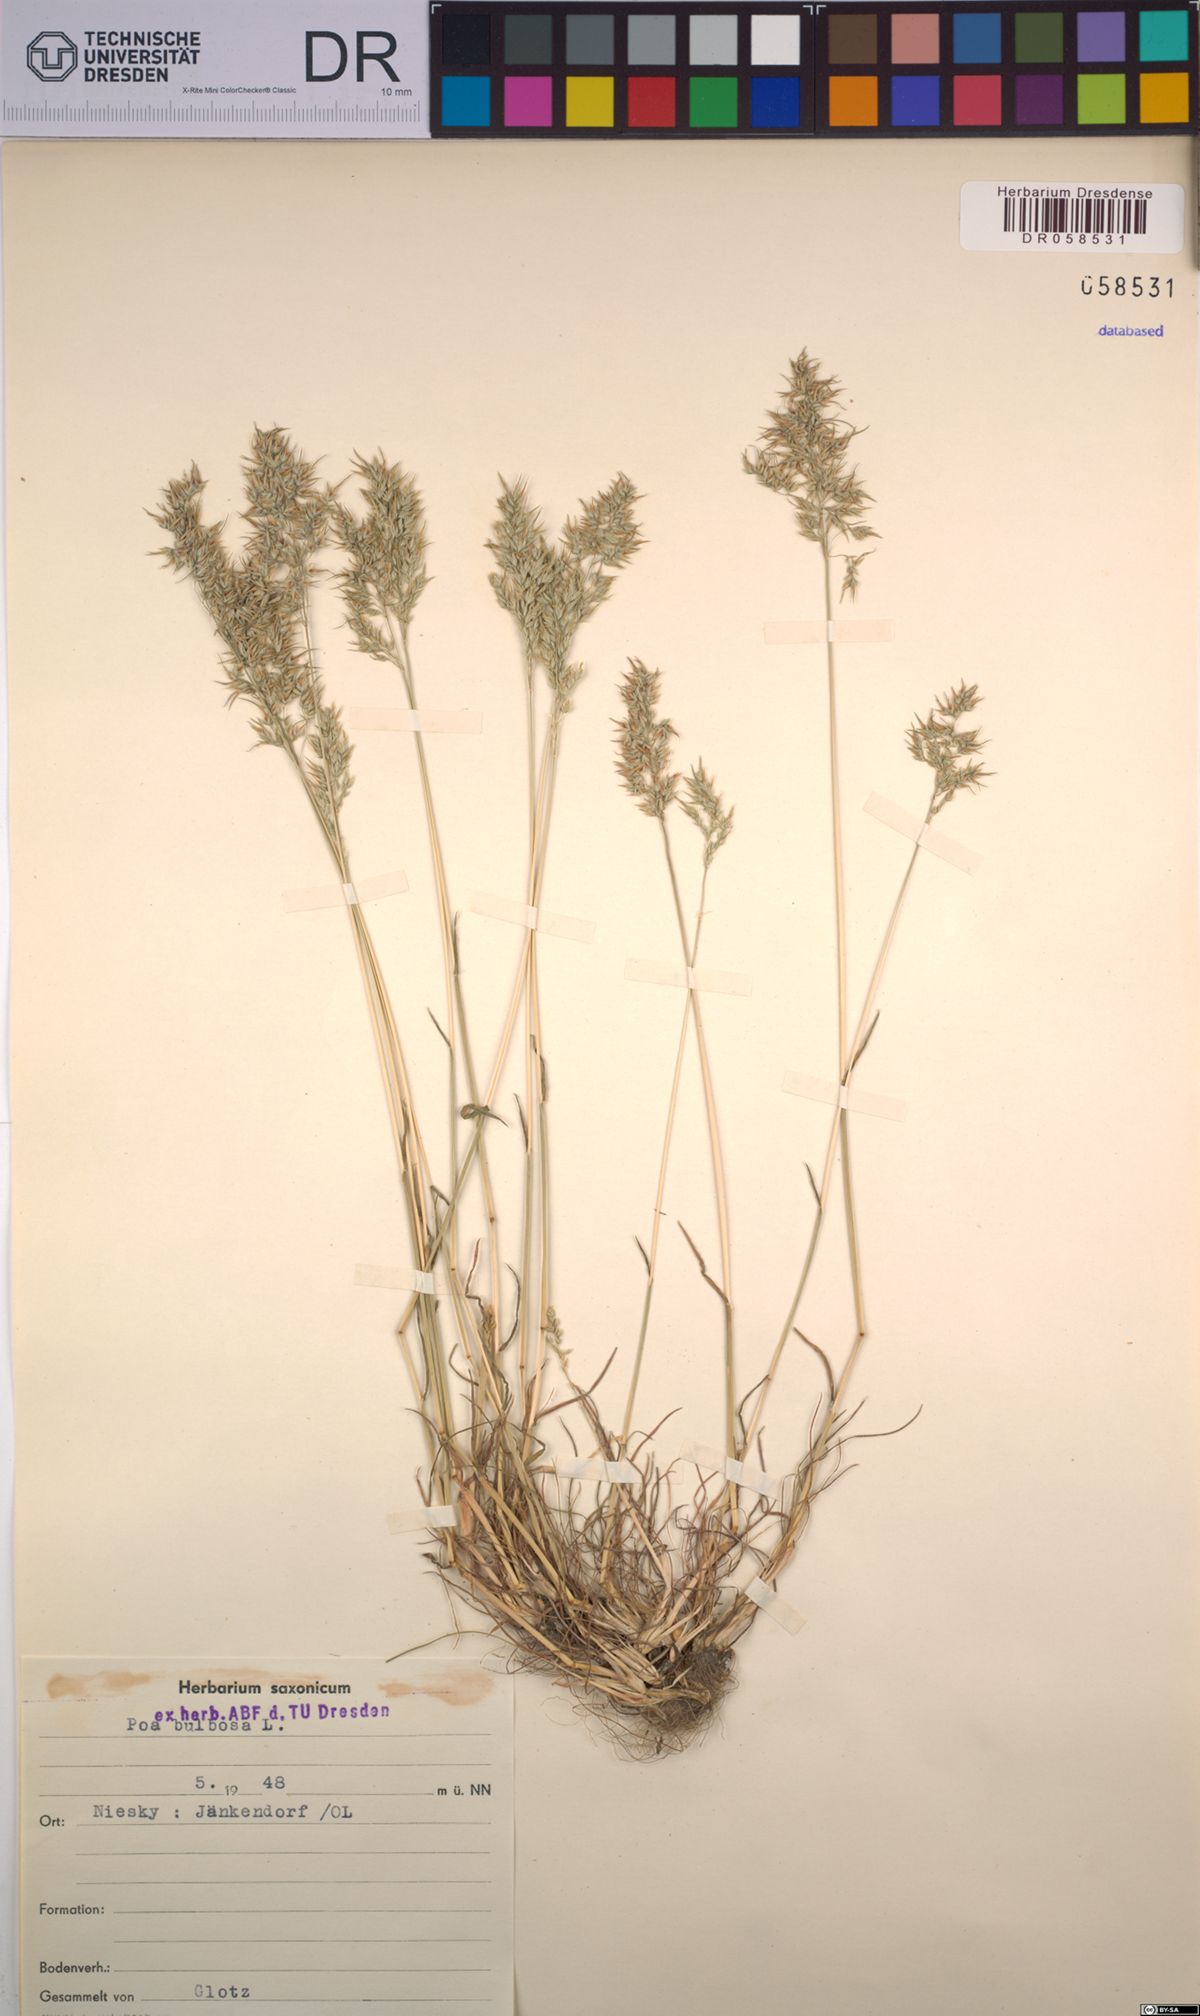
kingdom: Plantae
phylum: Tracheophyta
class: Liliopsida
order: Poales
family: Poaceae
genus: Poa
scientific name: Poa bulbosa
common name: Bulbous bluegrass
